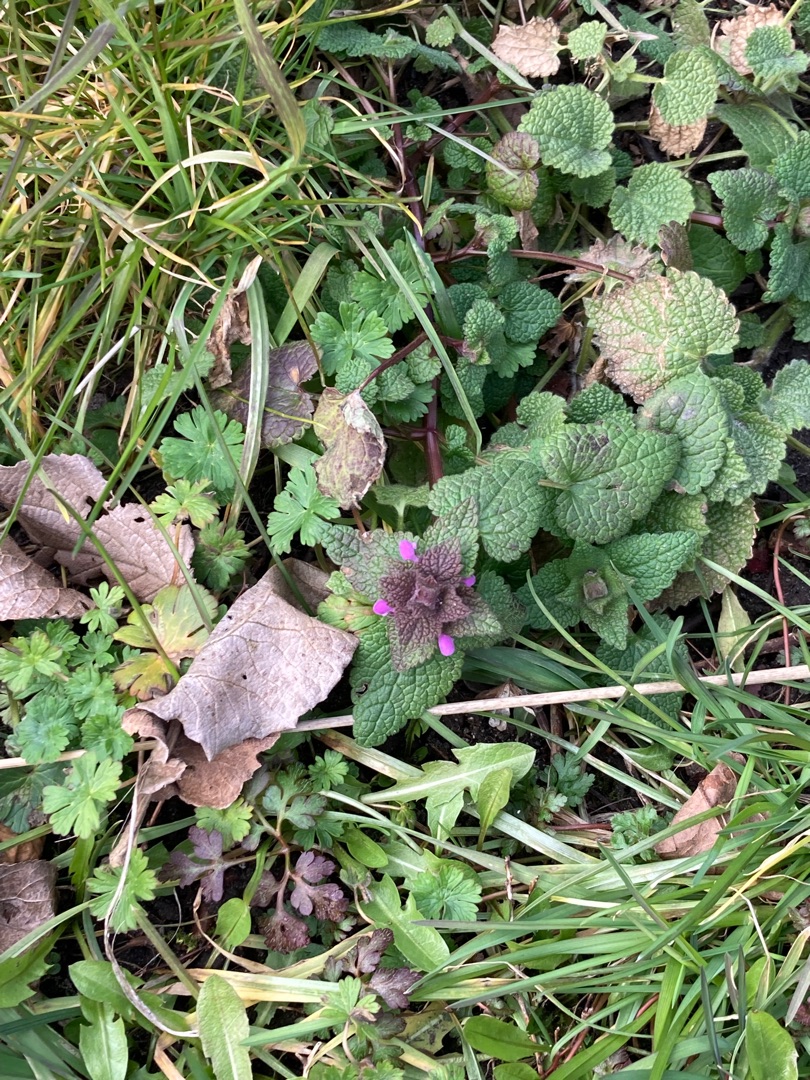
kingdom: Plantae
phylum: Tracheophyta
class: Magnoliopsida
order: Lamiales
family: Lamiaceae
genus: Lamium
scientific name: Lamium purpureum
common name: Rød tvetand
